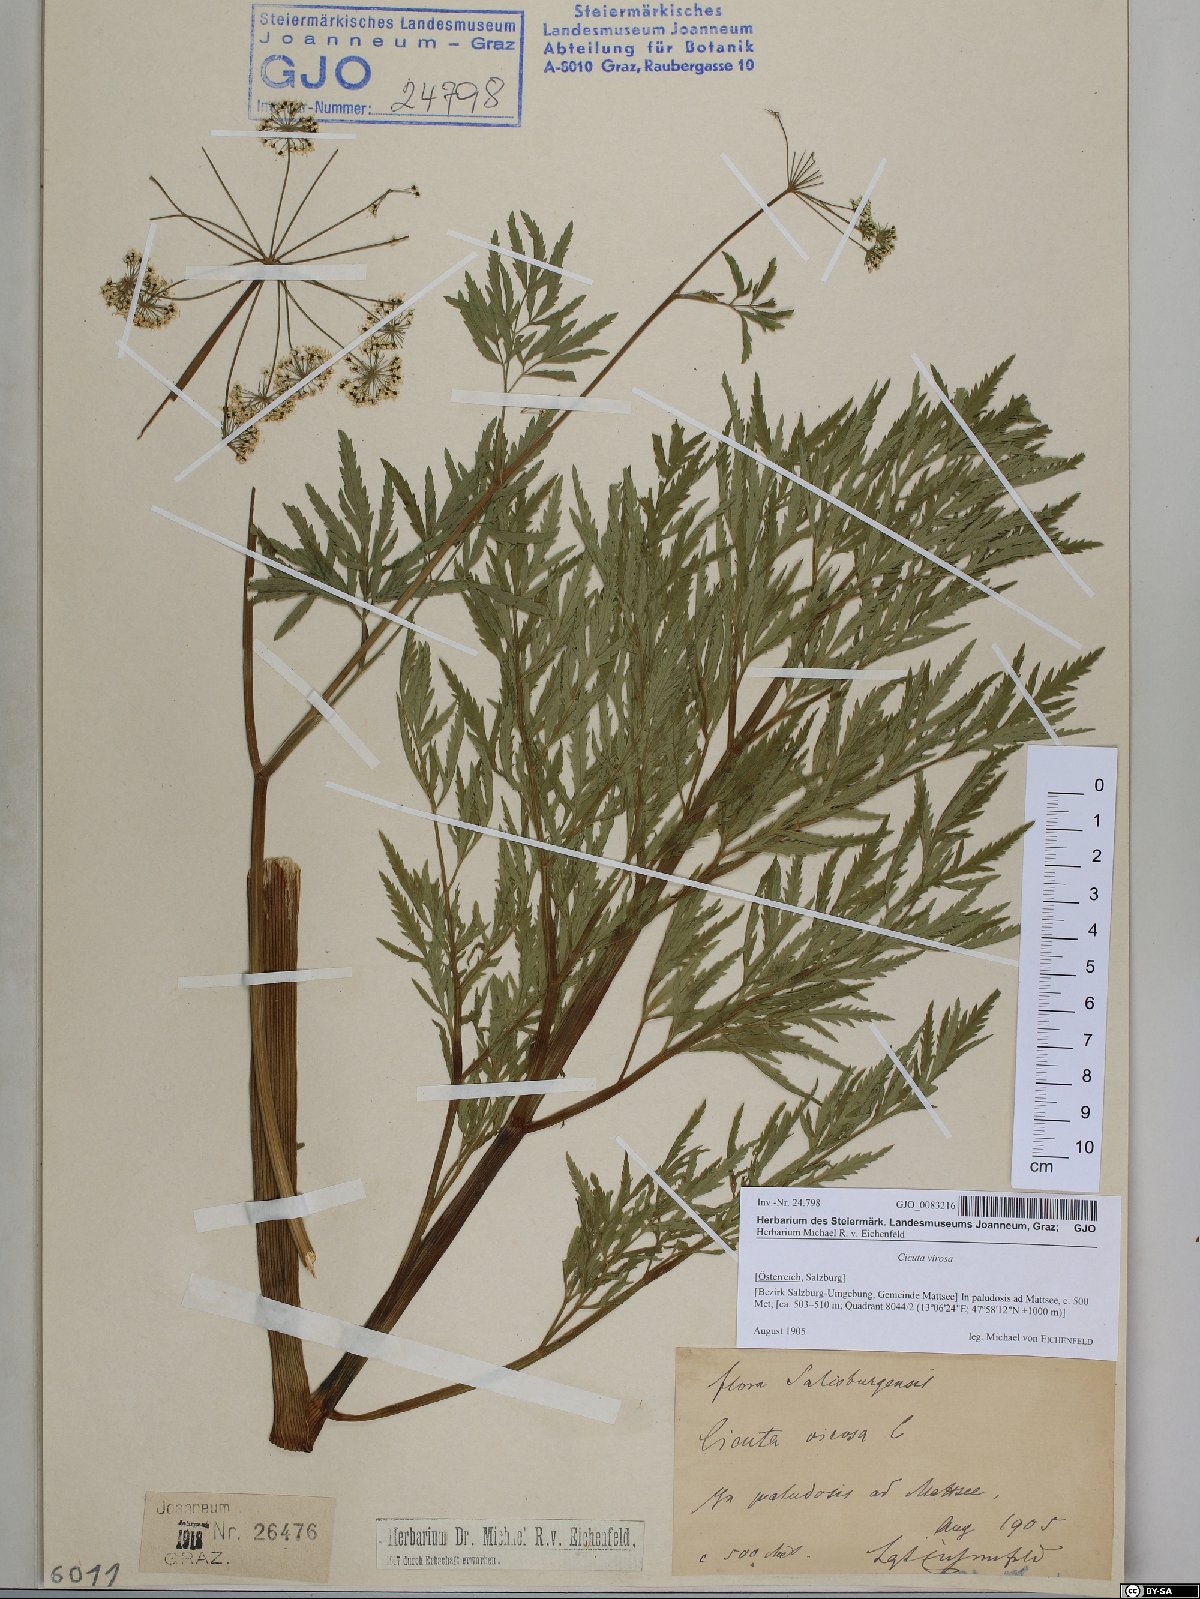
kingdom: Plantae
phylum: Tracheophyta
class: Magnoliopsida
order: Apiales
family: Apiaceae
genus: Cicuta
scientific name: Cicuta virosa
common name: Cowbane
